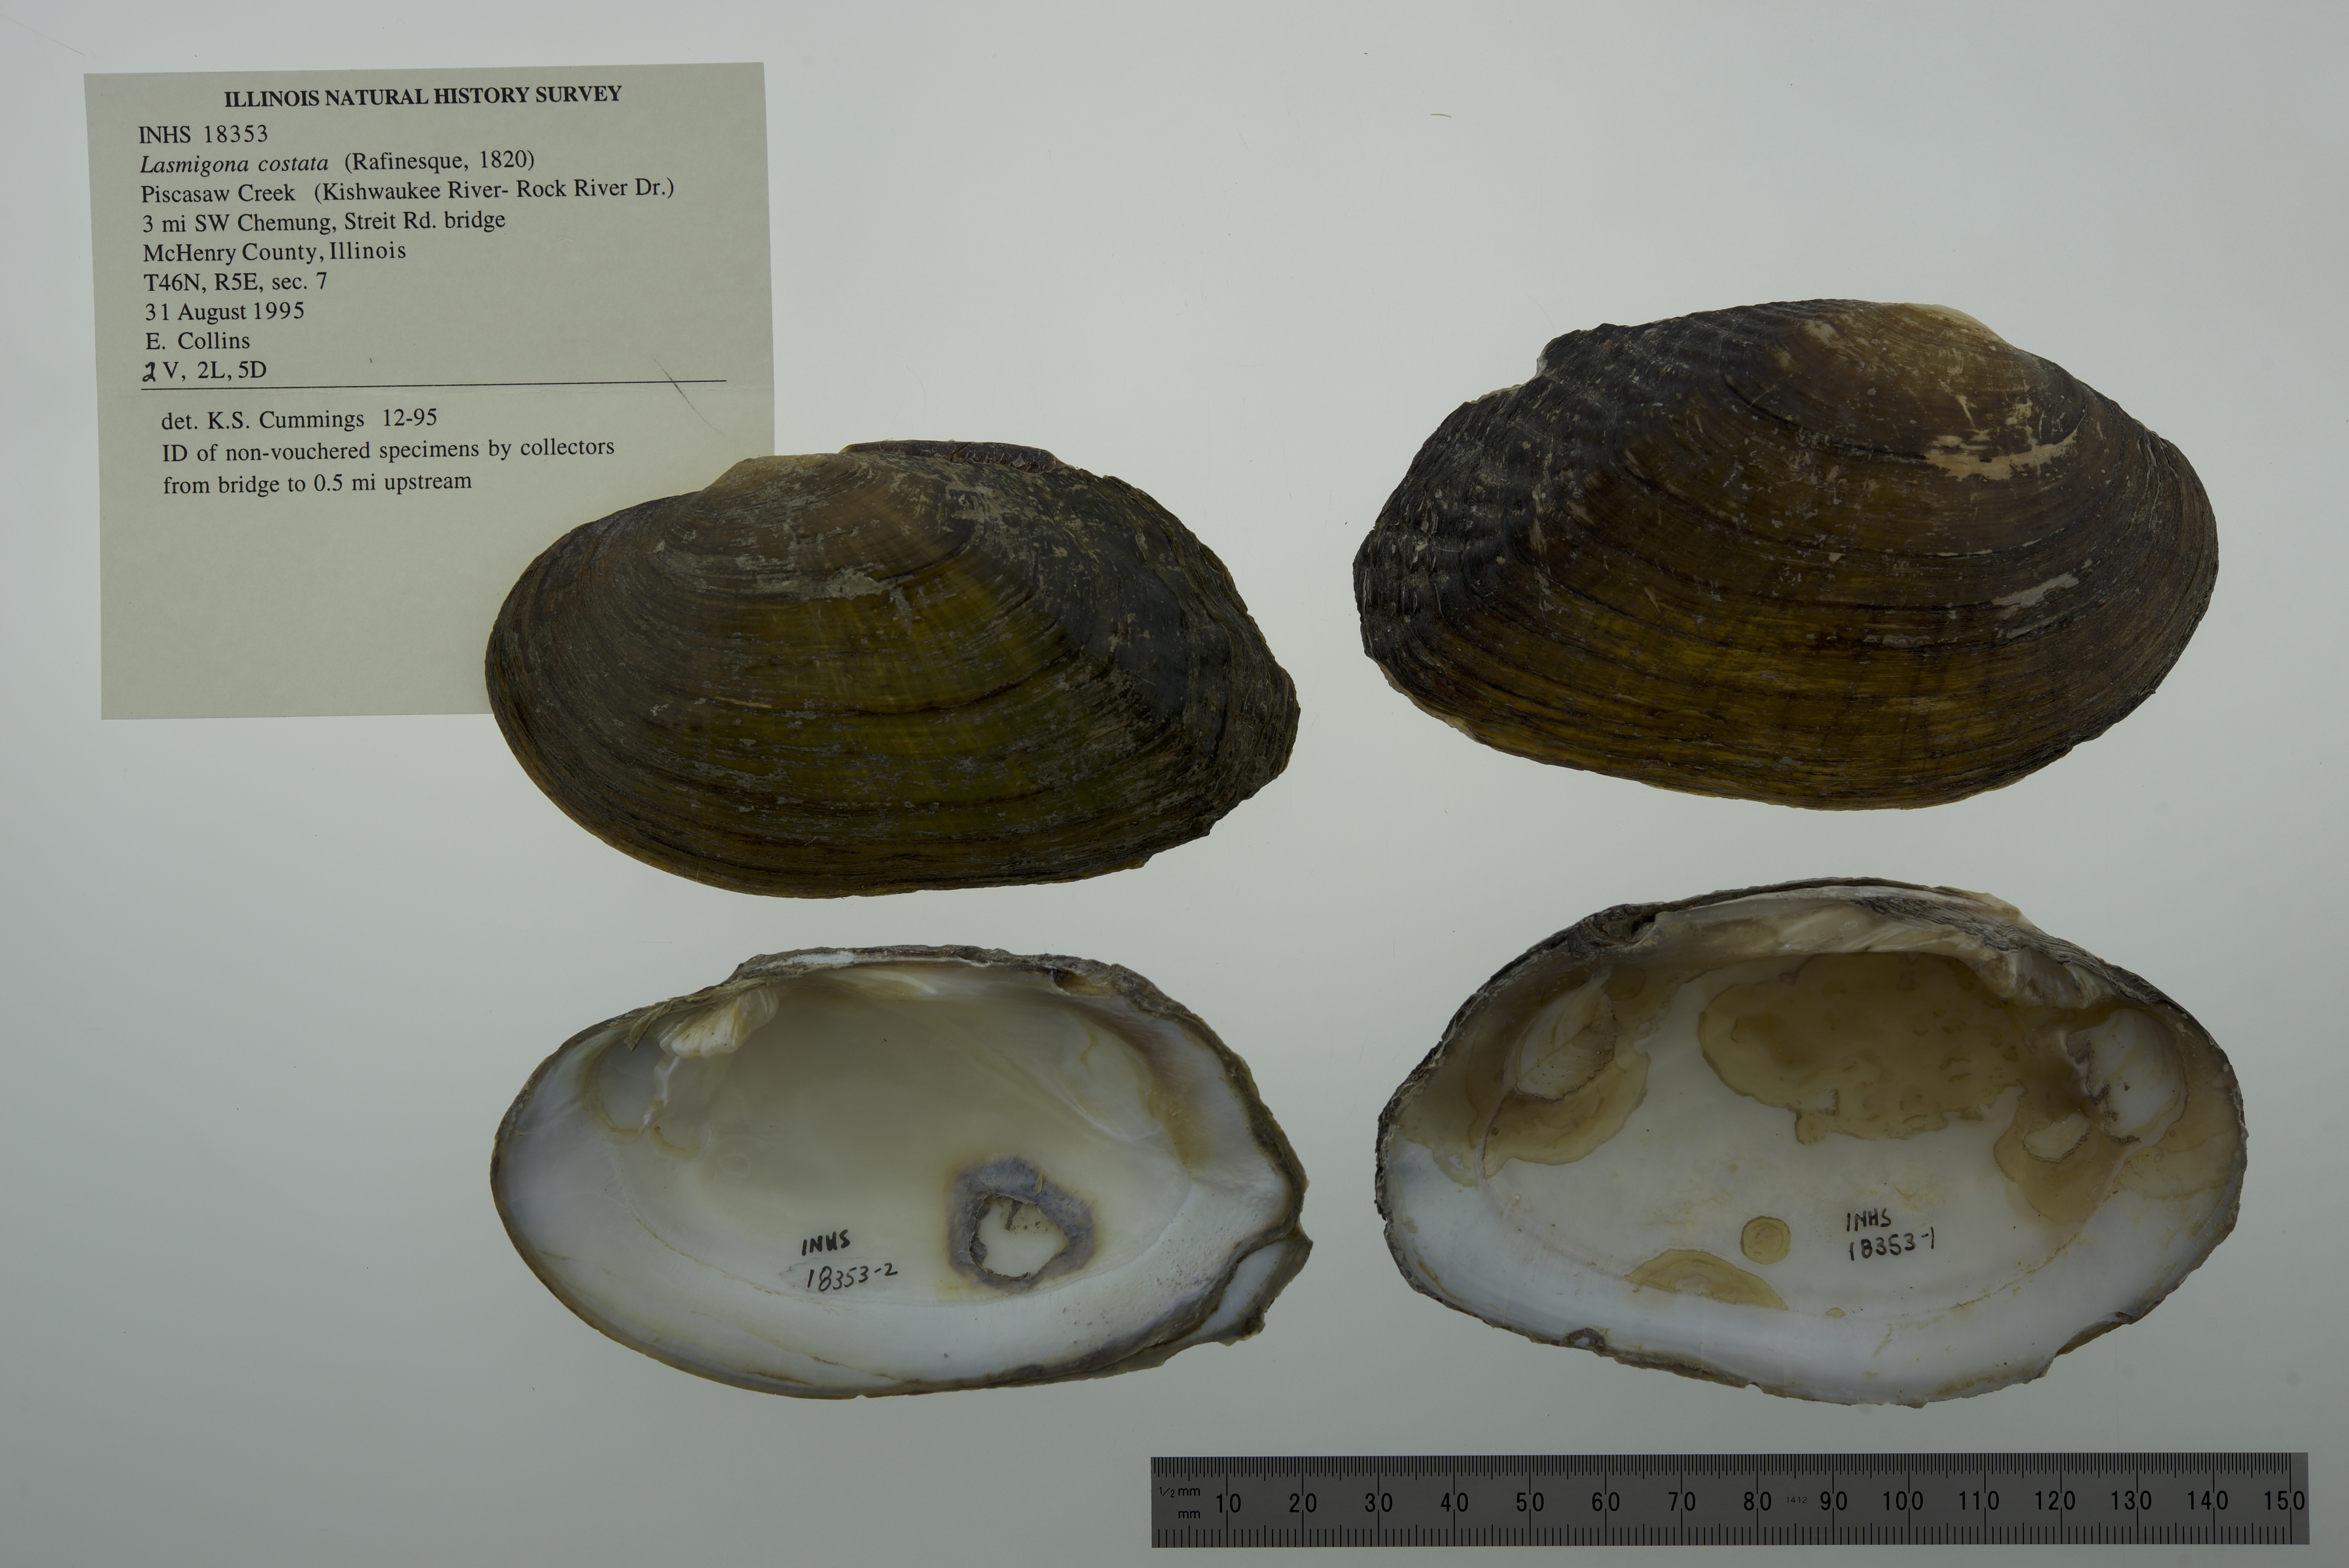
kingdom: Animalia
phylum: Mollusca
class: Bivalvia
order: Unionida
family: Unionidae
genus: Lasmigona
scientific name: Lasmigona costata
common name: Flutedshell
